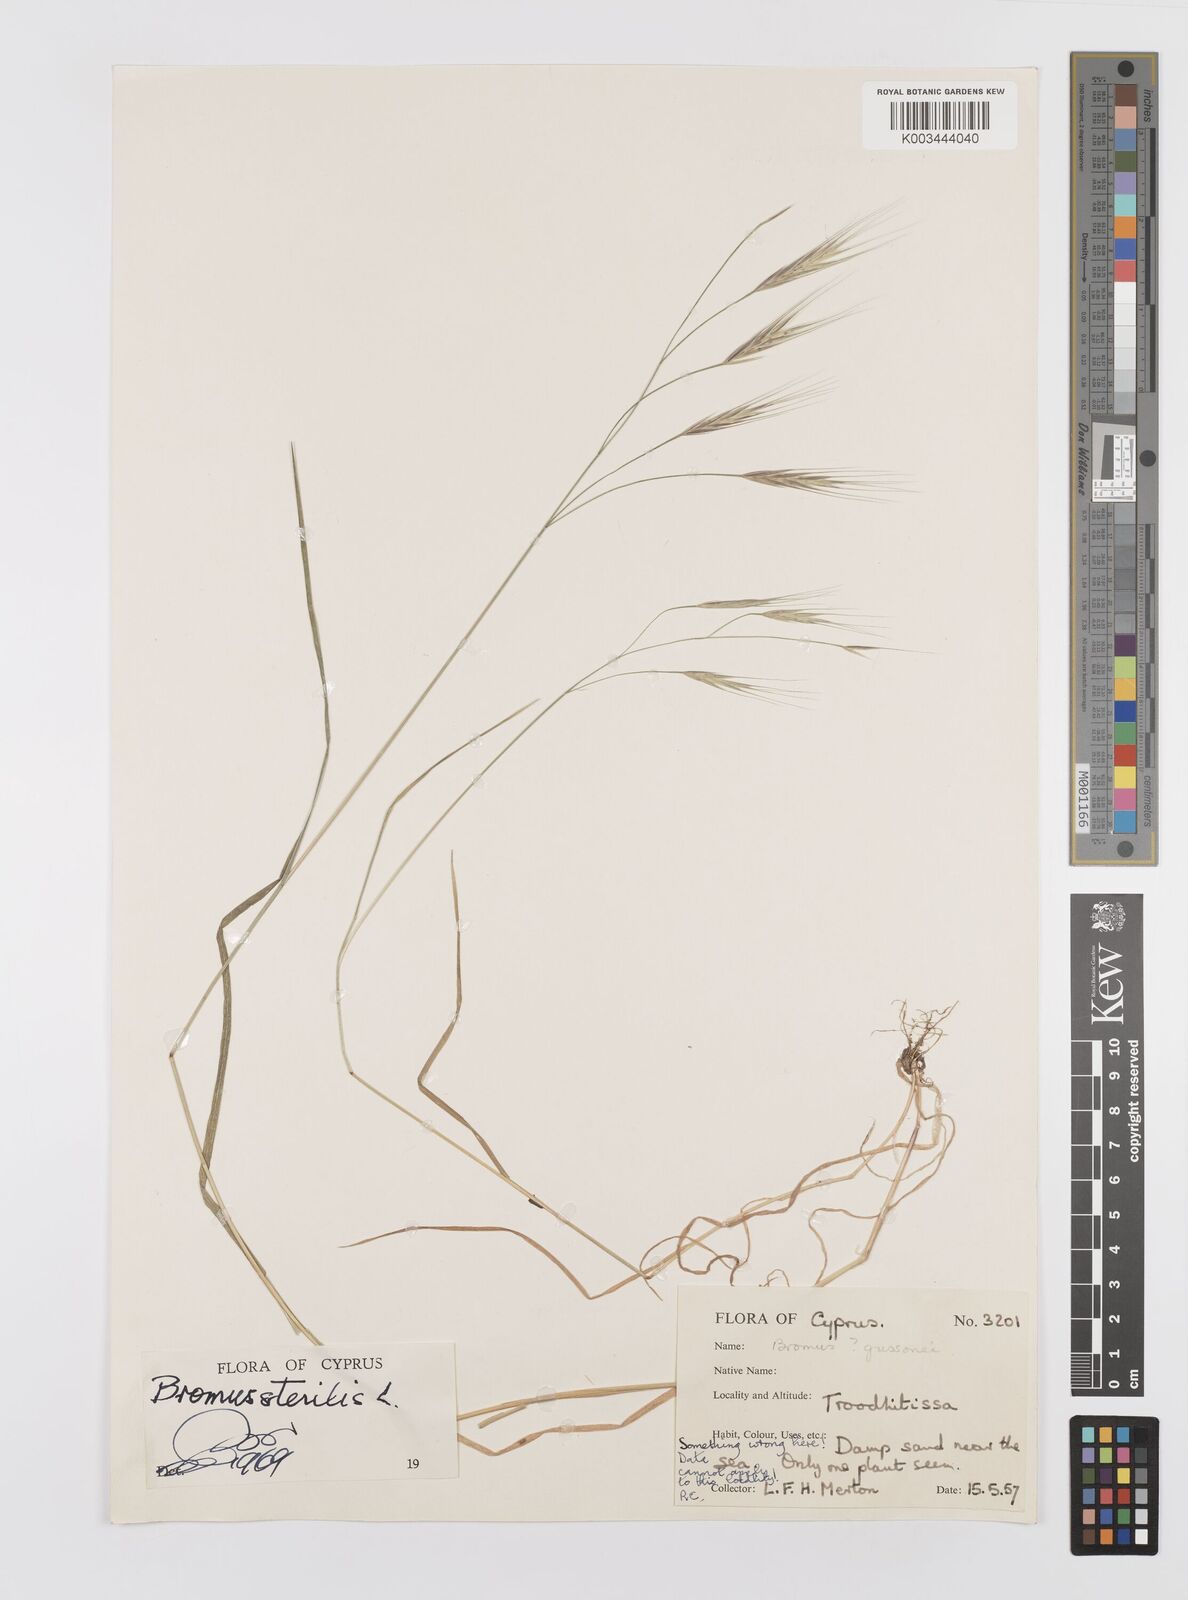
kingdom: Plantae
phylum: Tracheophyta
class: Liliopsida
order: Poales
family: Poaceae
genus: Bromus
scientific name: Bromus sterilis
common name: Poverty brome
